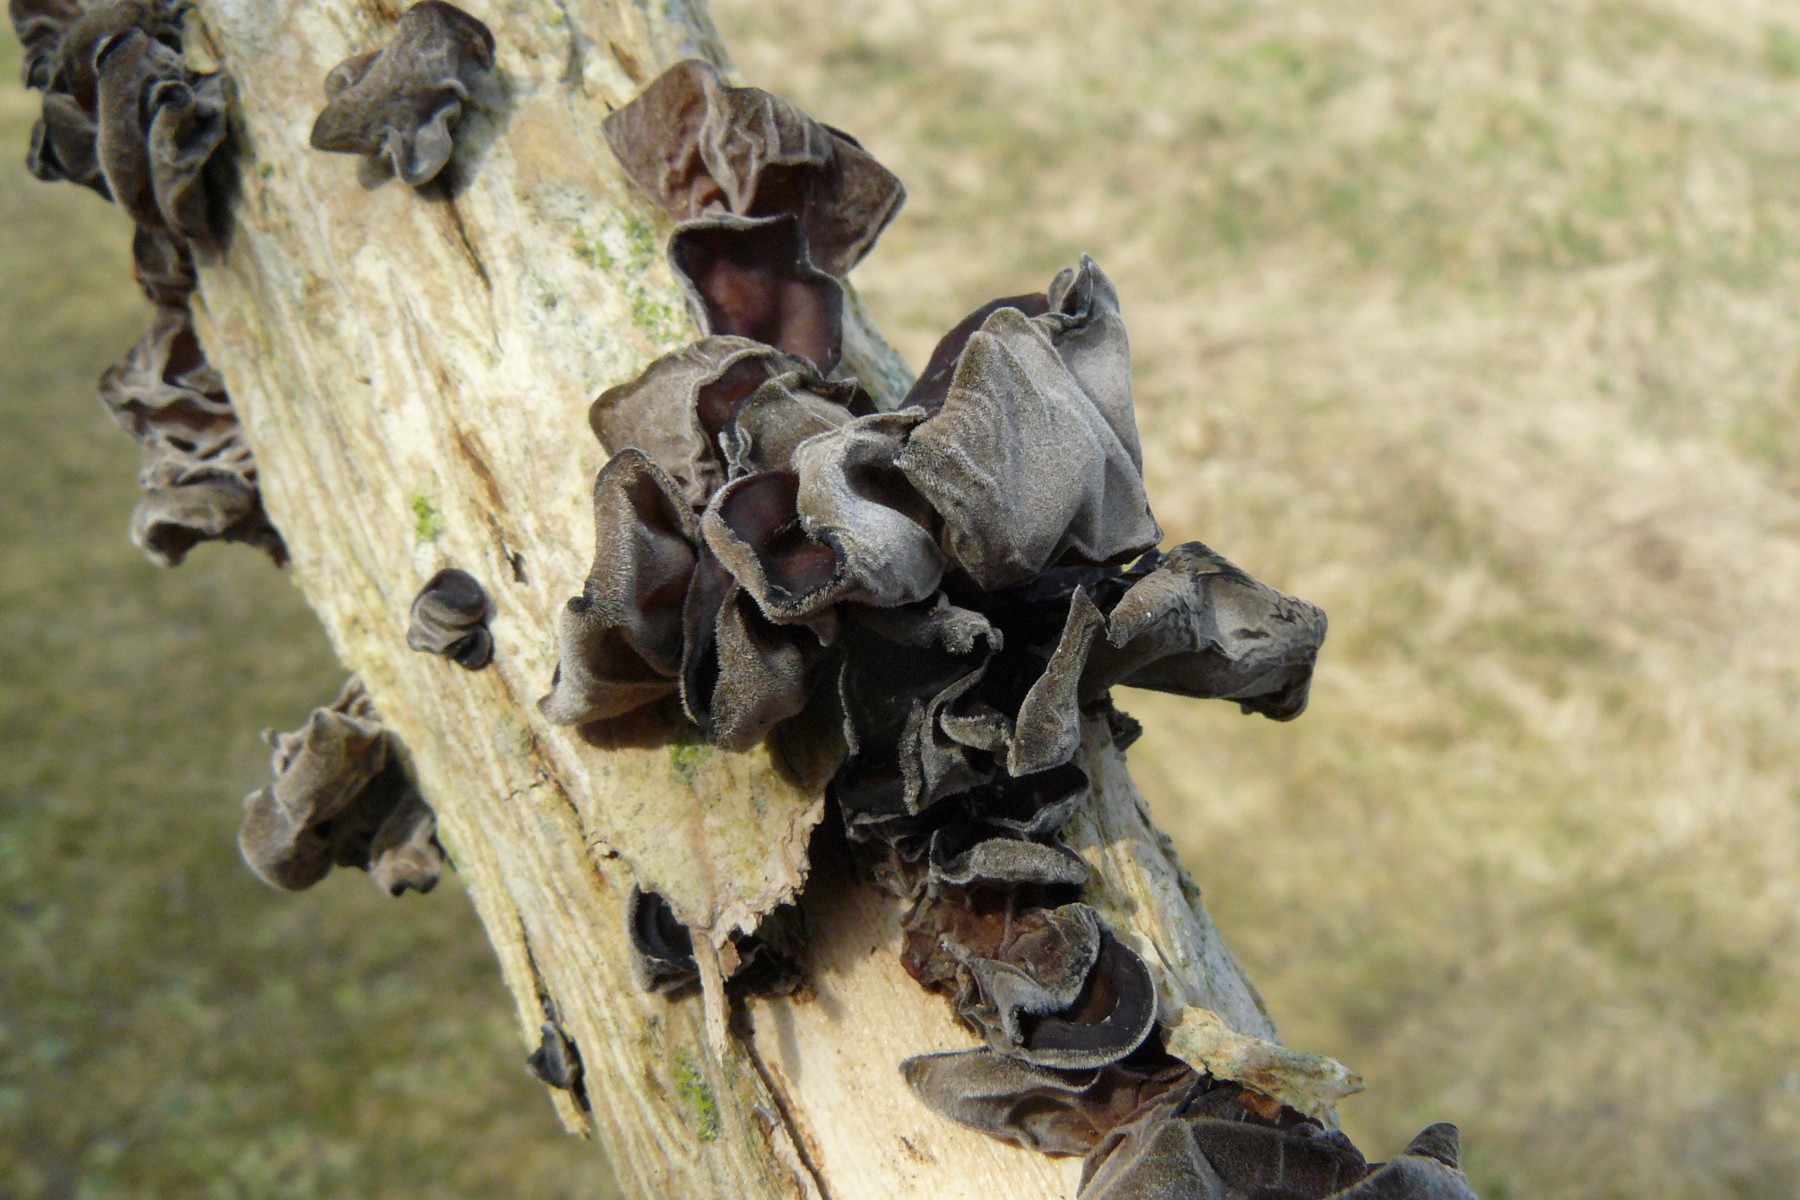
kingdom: Fungi
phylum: Basidiomycota
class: Agaricomycetes
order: Auriculariales
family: Auriculariaceae
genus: Auricularia
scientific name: Auricularia auricula-judae
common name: almindelig judasøre
